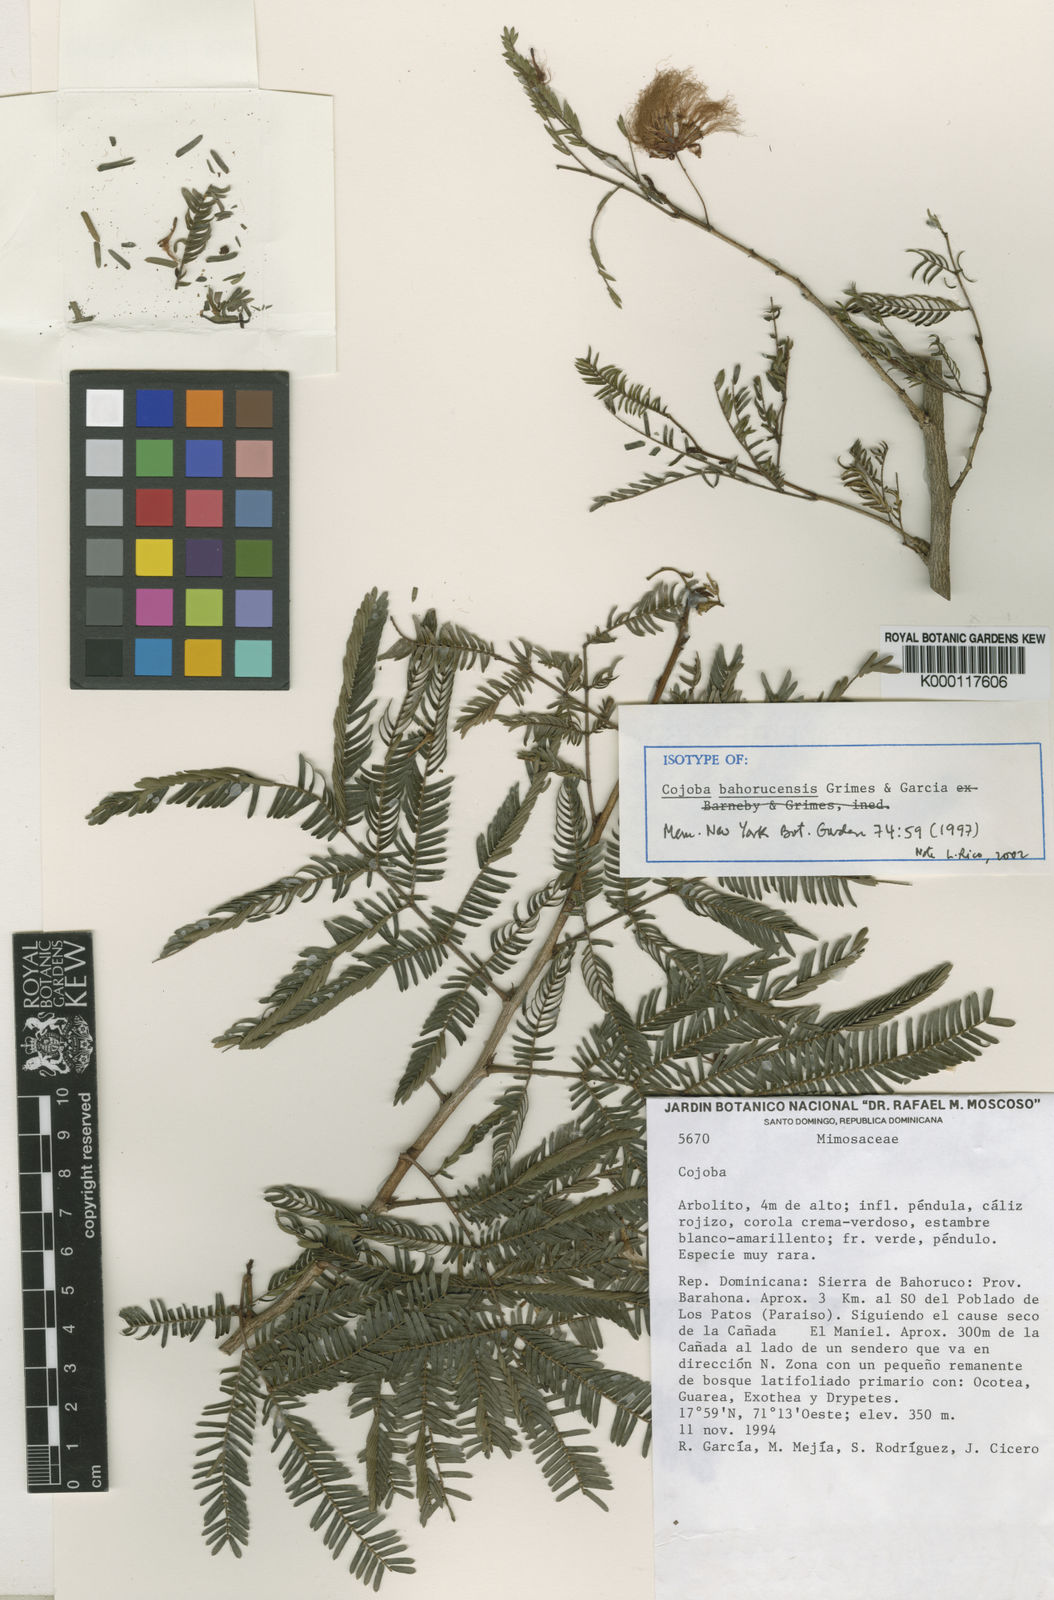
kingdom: Plantae
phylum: Tracheophyta
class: Magnoliopsida
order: Fabales
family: Fabaceae
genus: Cojoba
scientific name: Cojoba bahorucensis
